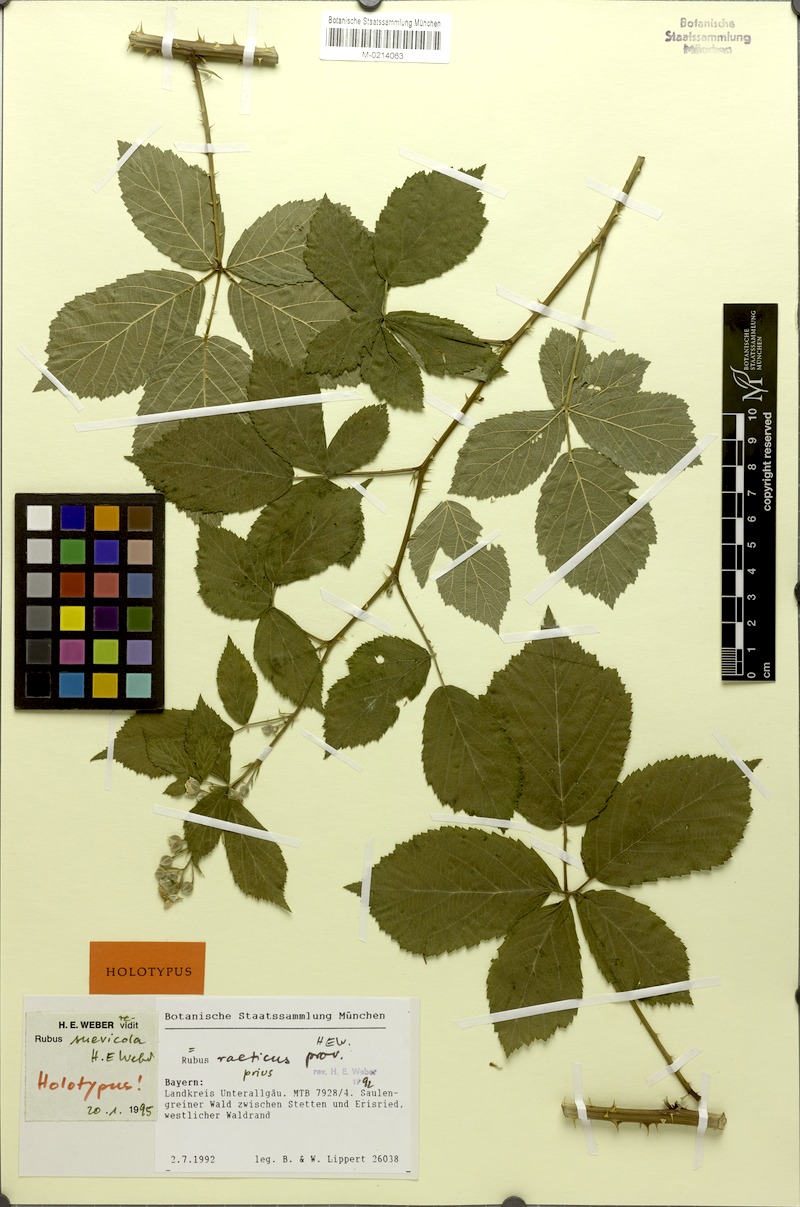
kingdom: Plantae
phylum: Tracheophyta
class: Magnoliopsida
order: Rosales
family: Rosaceae
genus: Rubus
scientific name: Rubus suevicola
